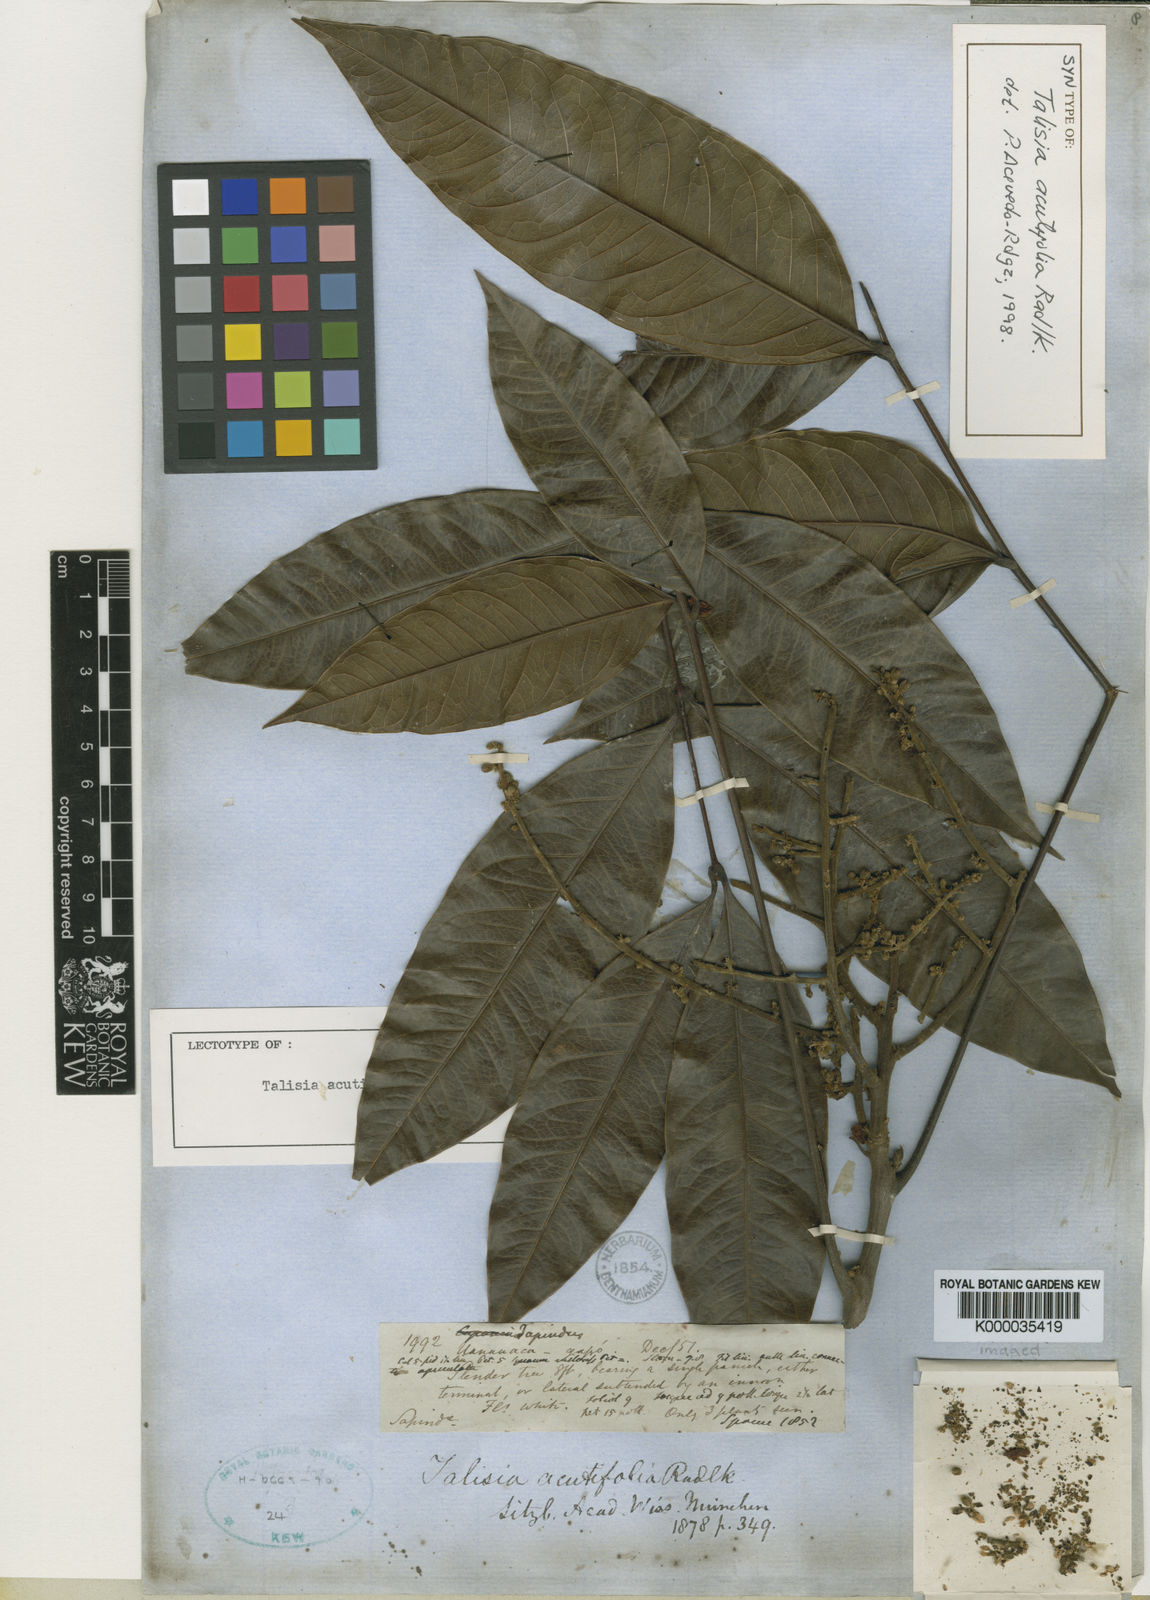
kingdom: Plantae
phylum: Tracheophyta
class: Magnoliopsida
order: Sapindales
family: Sapindaceae
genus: Talisia
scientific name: Talisia acutifolia
